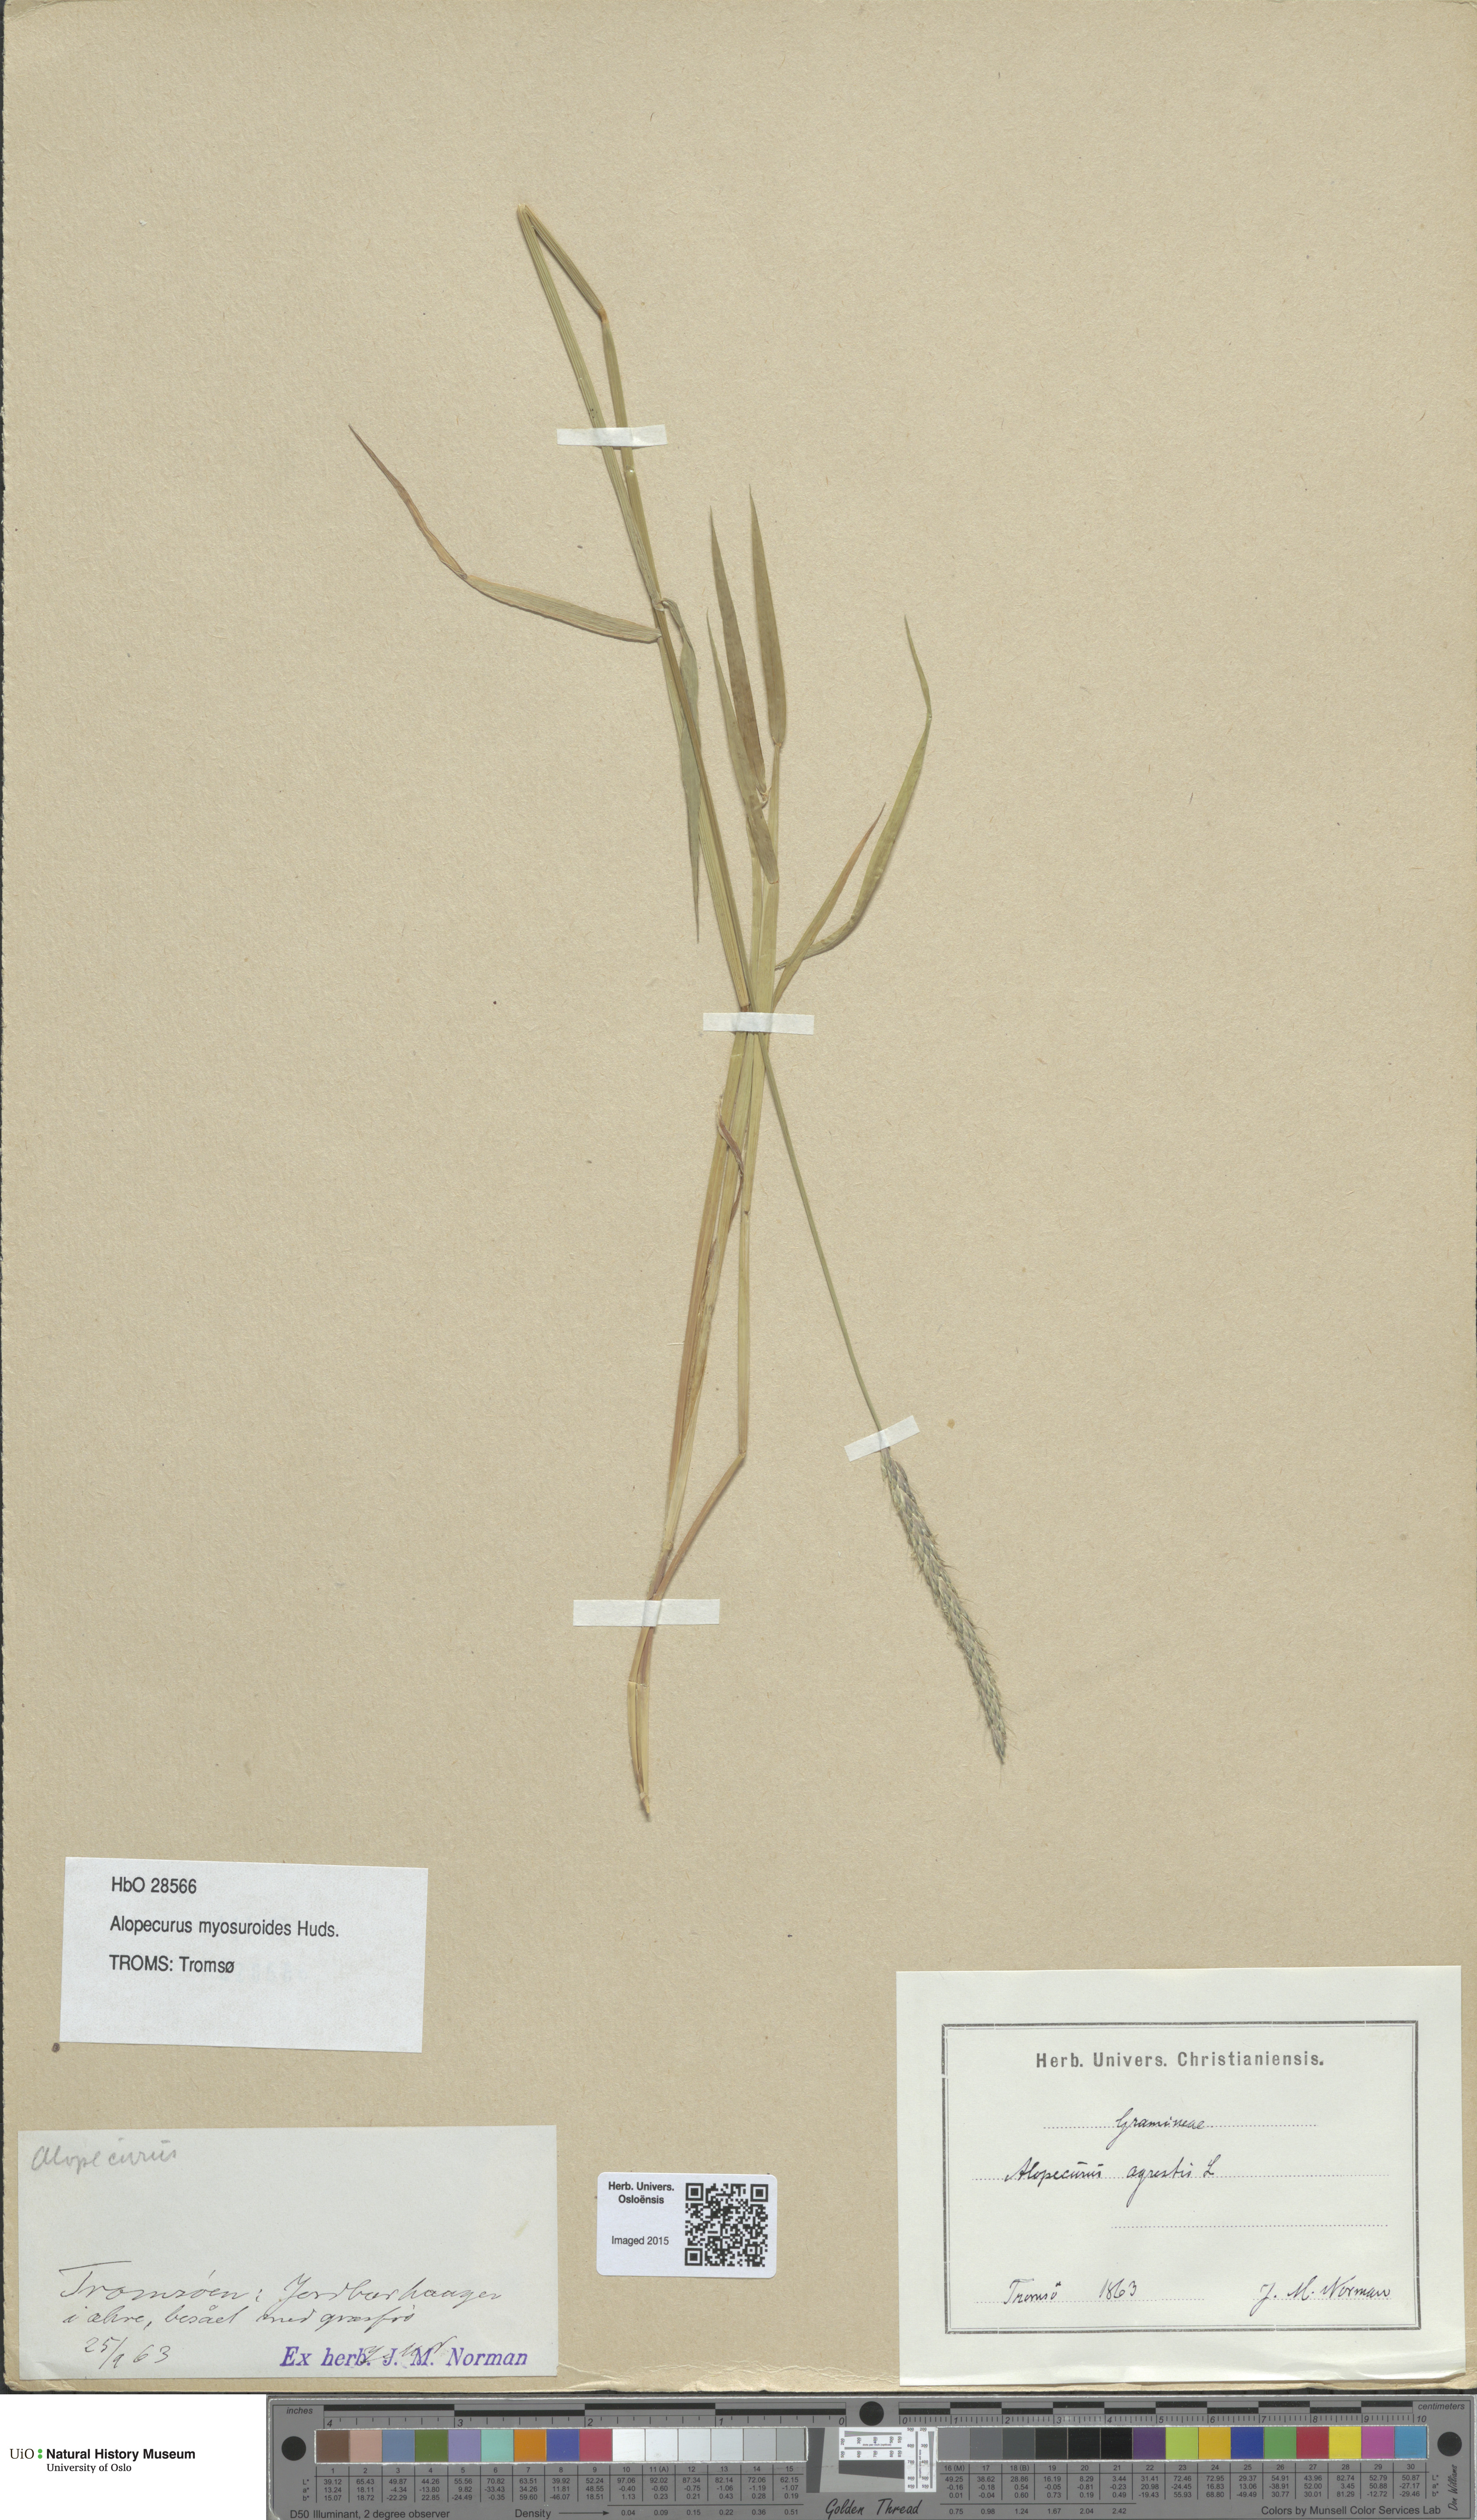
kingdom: Plantae
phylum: Tracheophyta
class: Liliopsida
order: Poales
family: Poaceae
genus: Alopecurus
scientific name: Alopecurus myosuroides
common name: Black-grass
